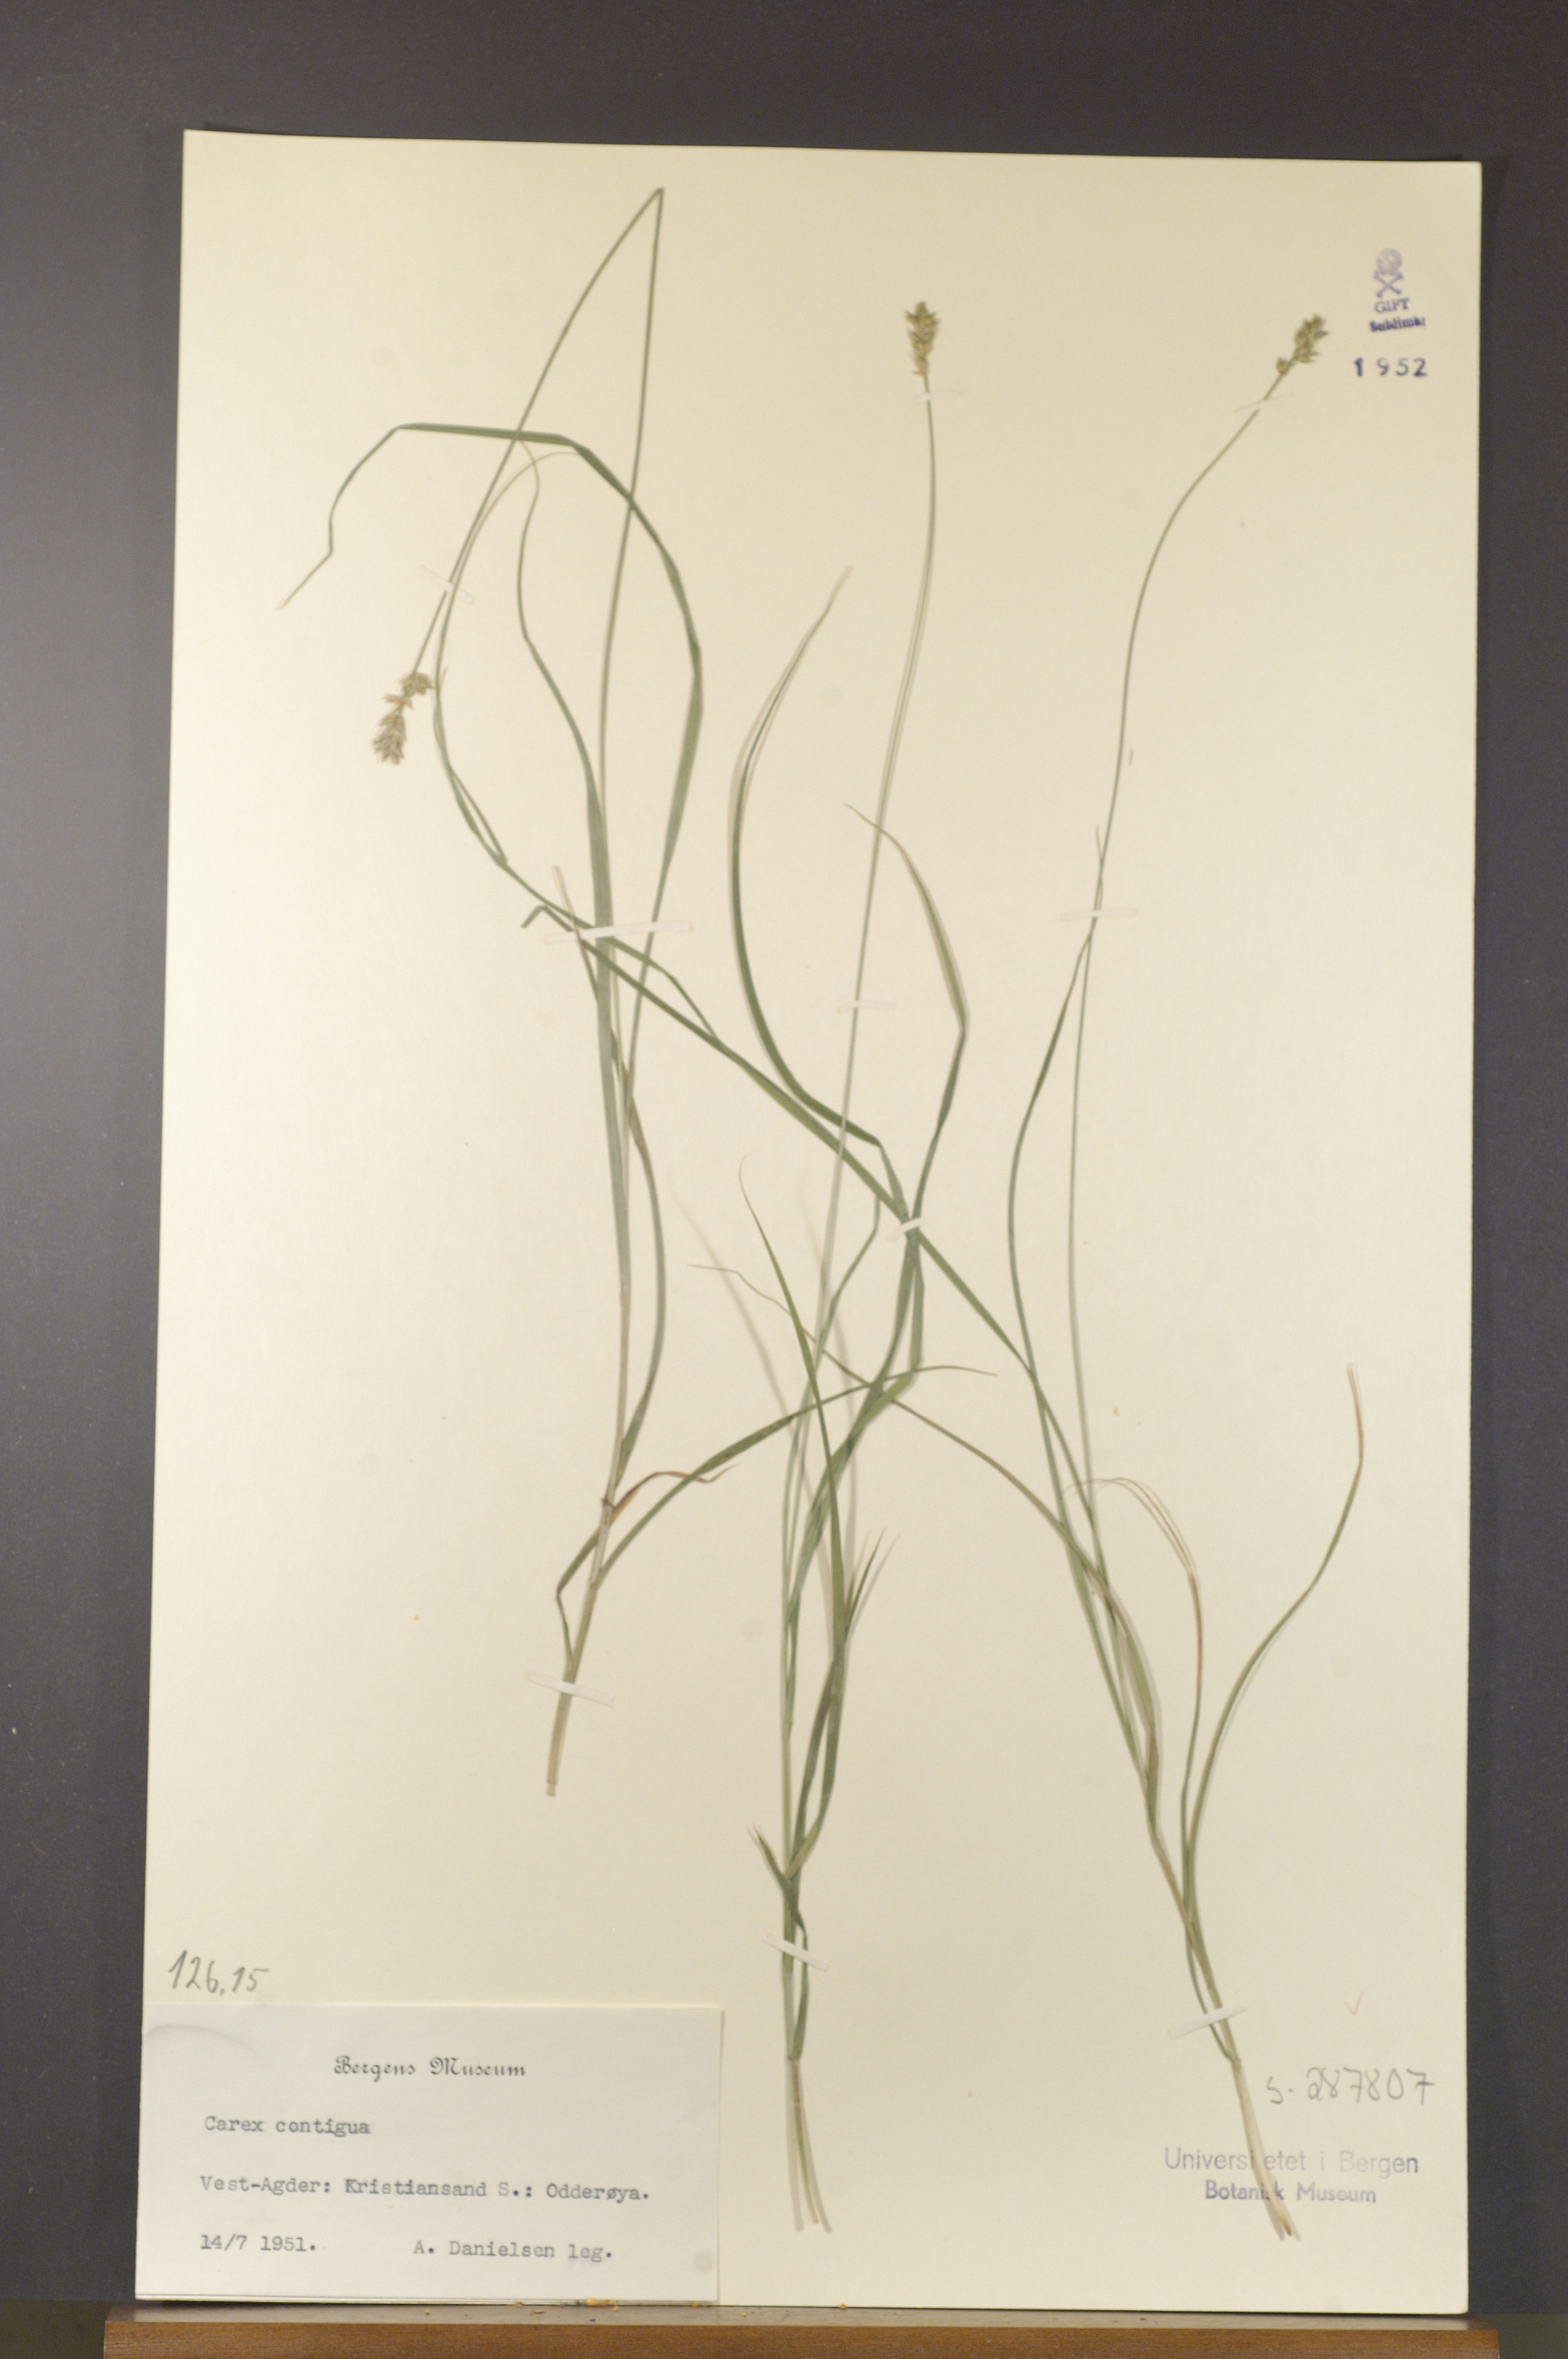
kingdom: Plantae
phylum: Tracheophyta
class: Liliopsida
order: Poales
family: Cyperaceae
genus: Carex
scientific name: Carex spicata
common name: Spiked sedge
